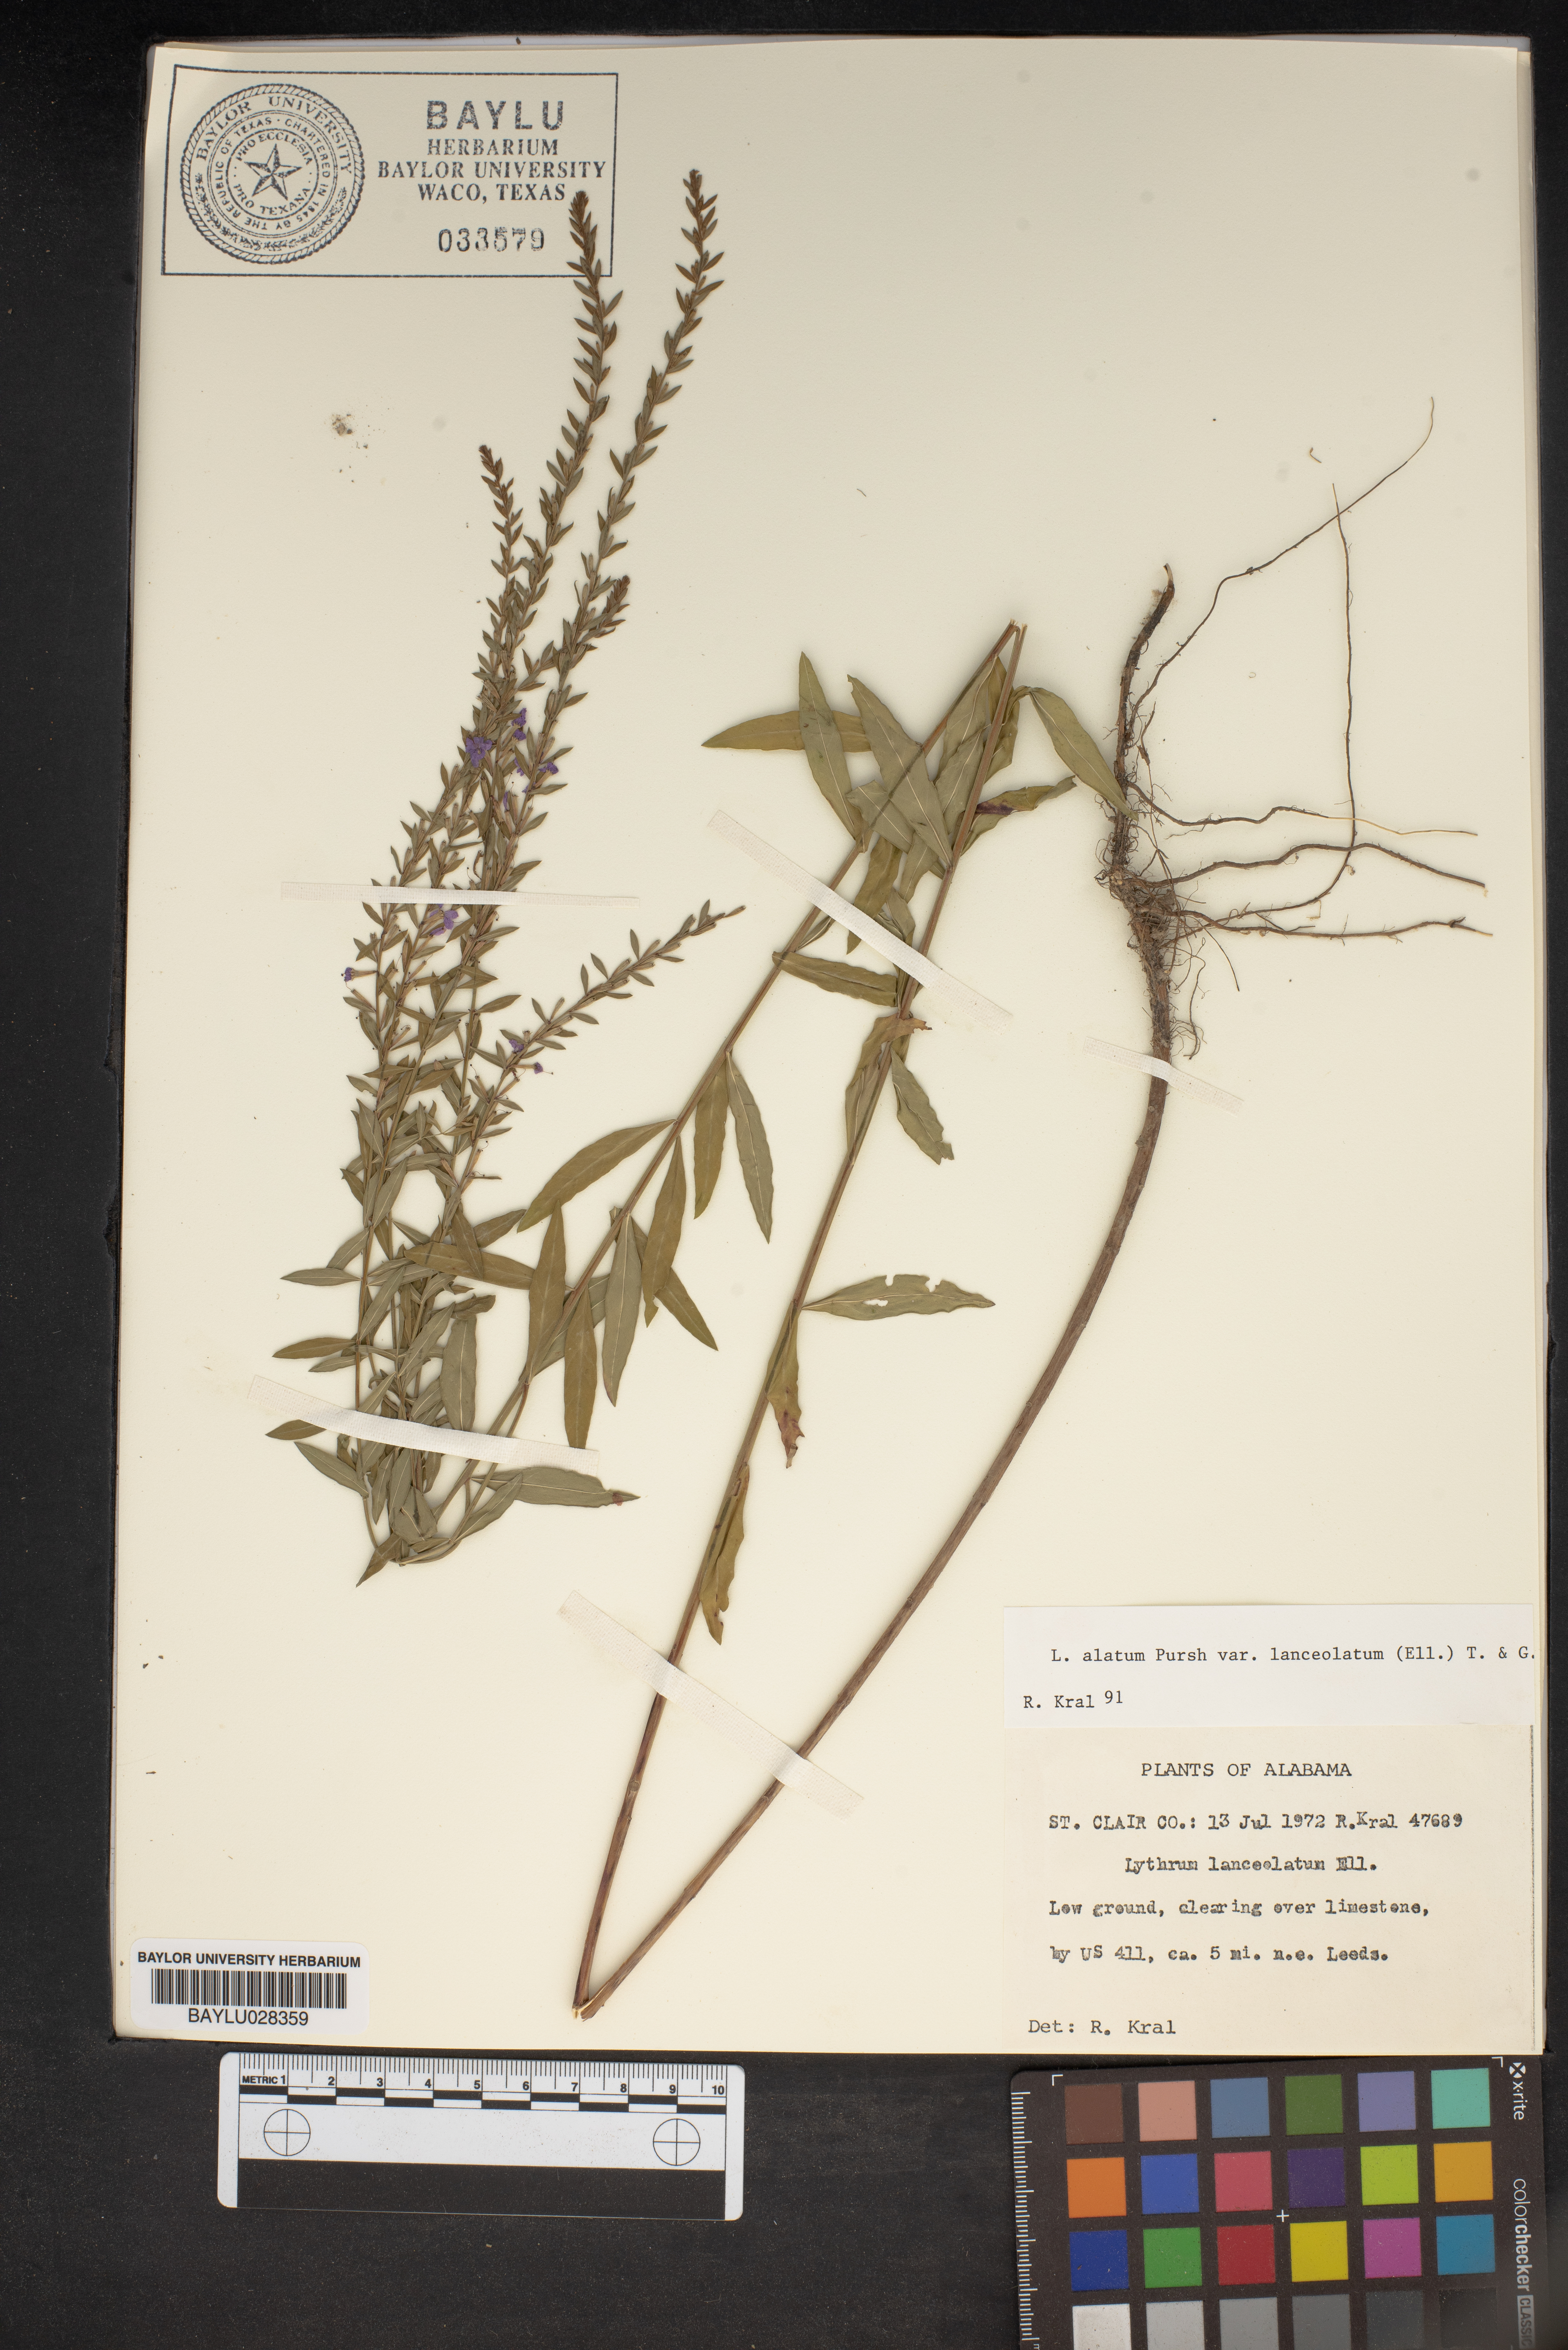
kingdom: Plantae
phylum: Tracheophyta
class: Magnoliopsida
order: Myrtales
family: Lythraceae
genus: Lythrum
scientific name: Lythrum alatum
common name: Winged loosestrife
